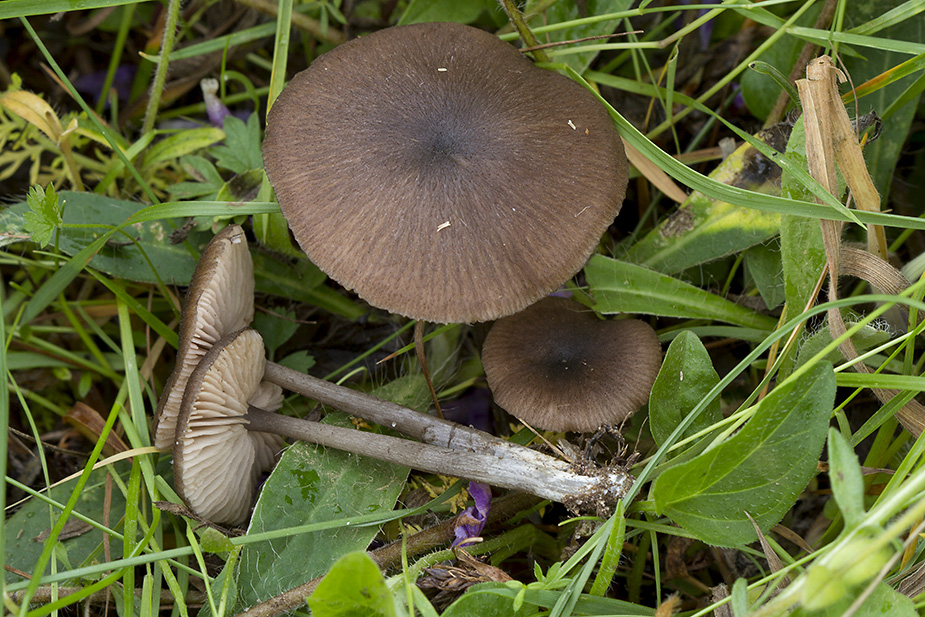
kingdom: Fungi
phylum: Basidiomycota
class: Agaricomycetes
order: Agaricales
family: Entolomataceae
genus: Entoloma
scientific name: Entoloma porphyrogriseum
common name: porfyrgrå rødblad
